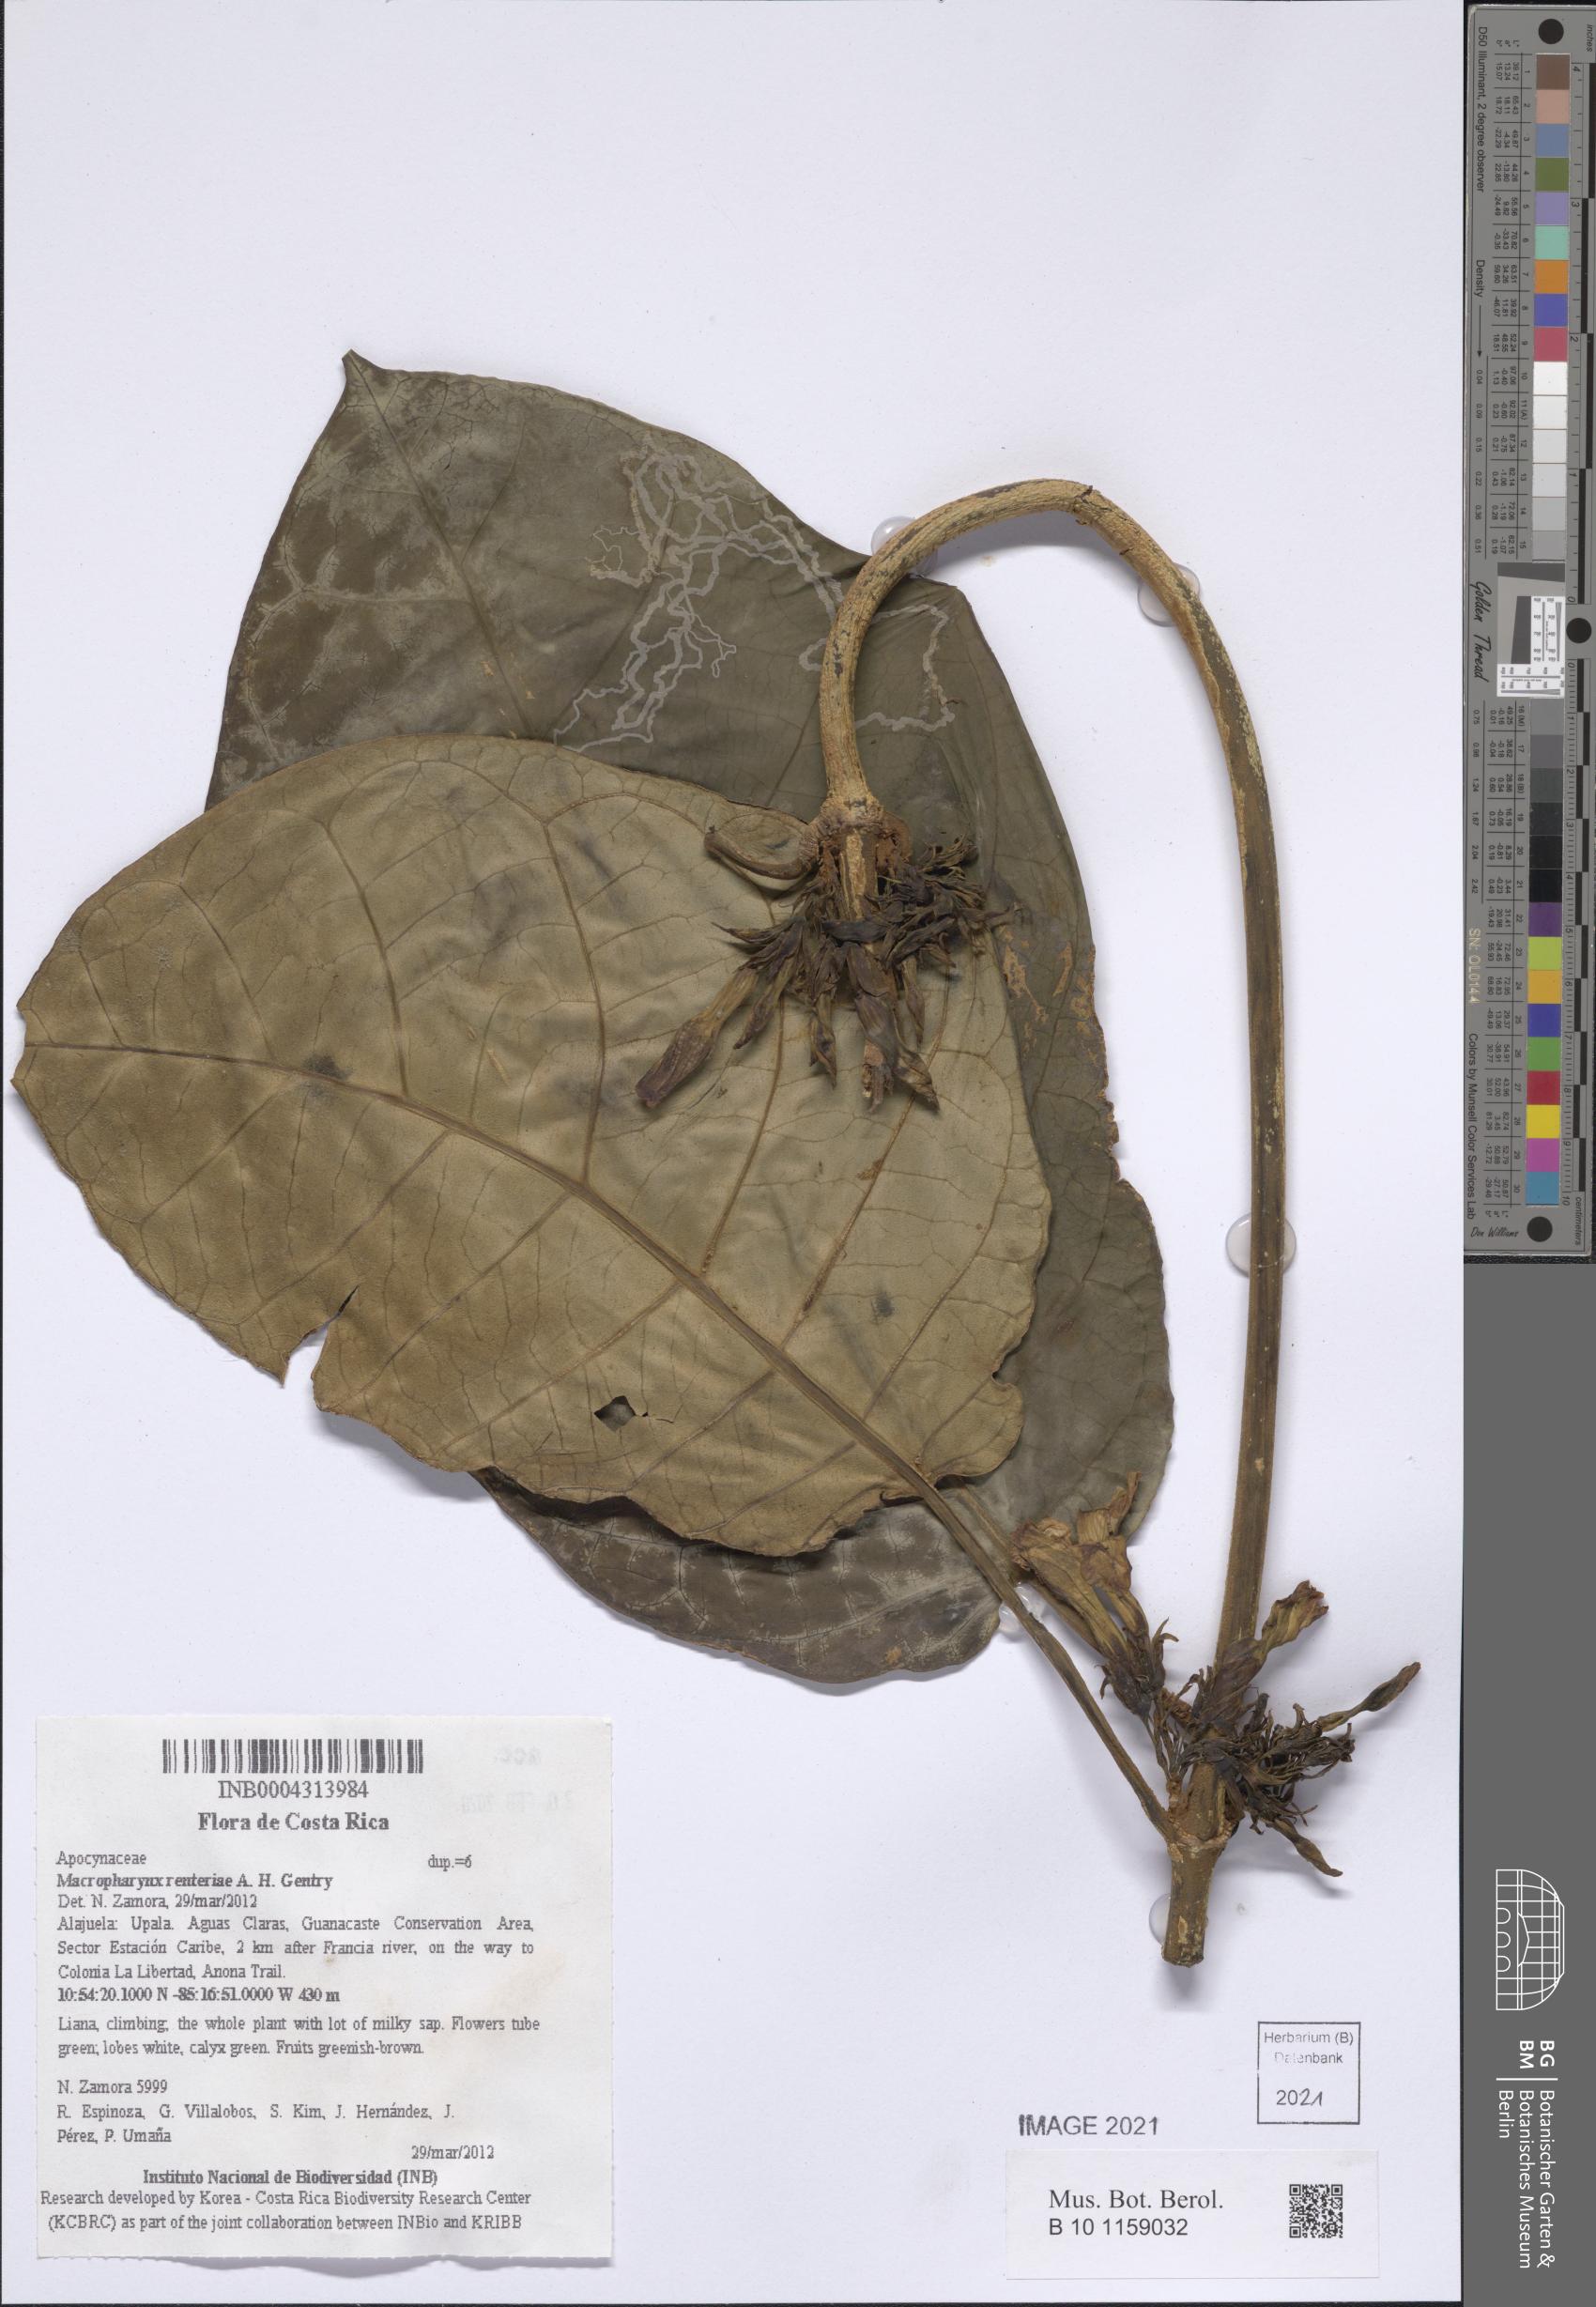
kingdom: Plantae
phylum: Tracheophyta
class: Magnoliopsida
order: Gentianales
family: Apocynaceae
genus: Macropharynx
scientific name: Macropharynx renteriae
